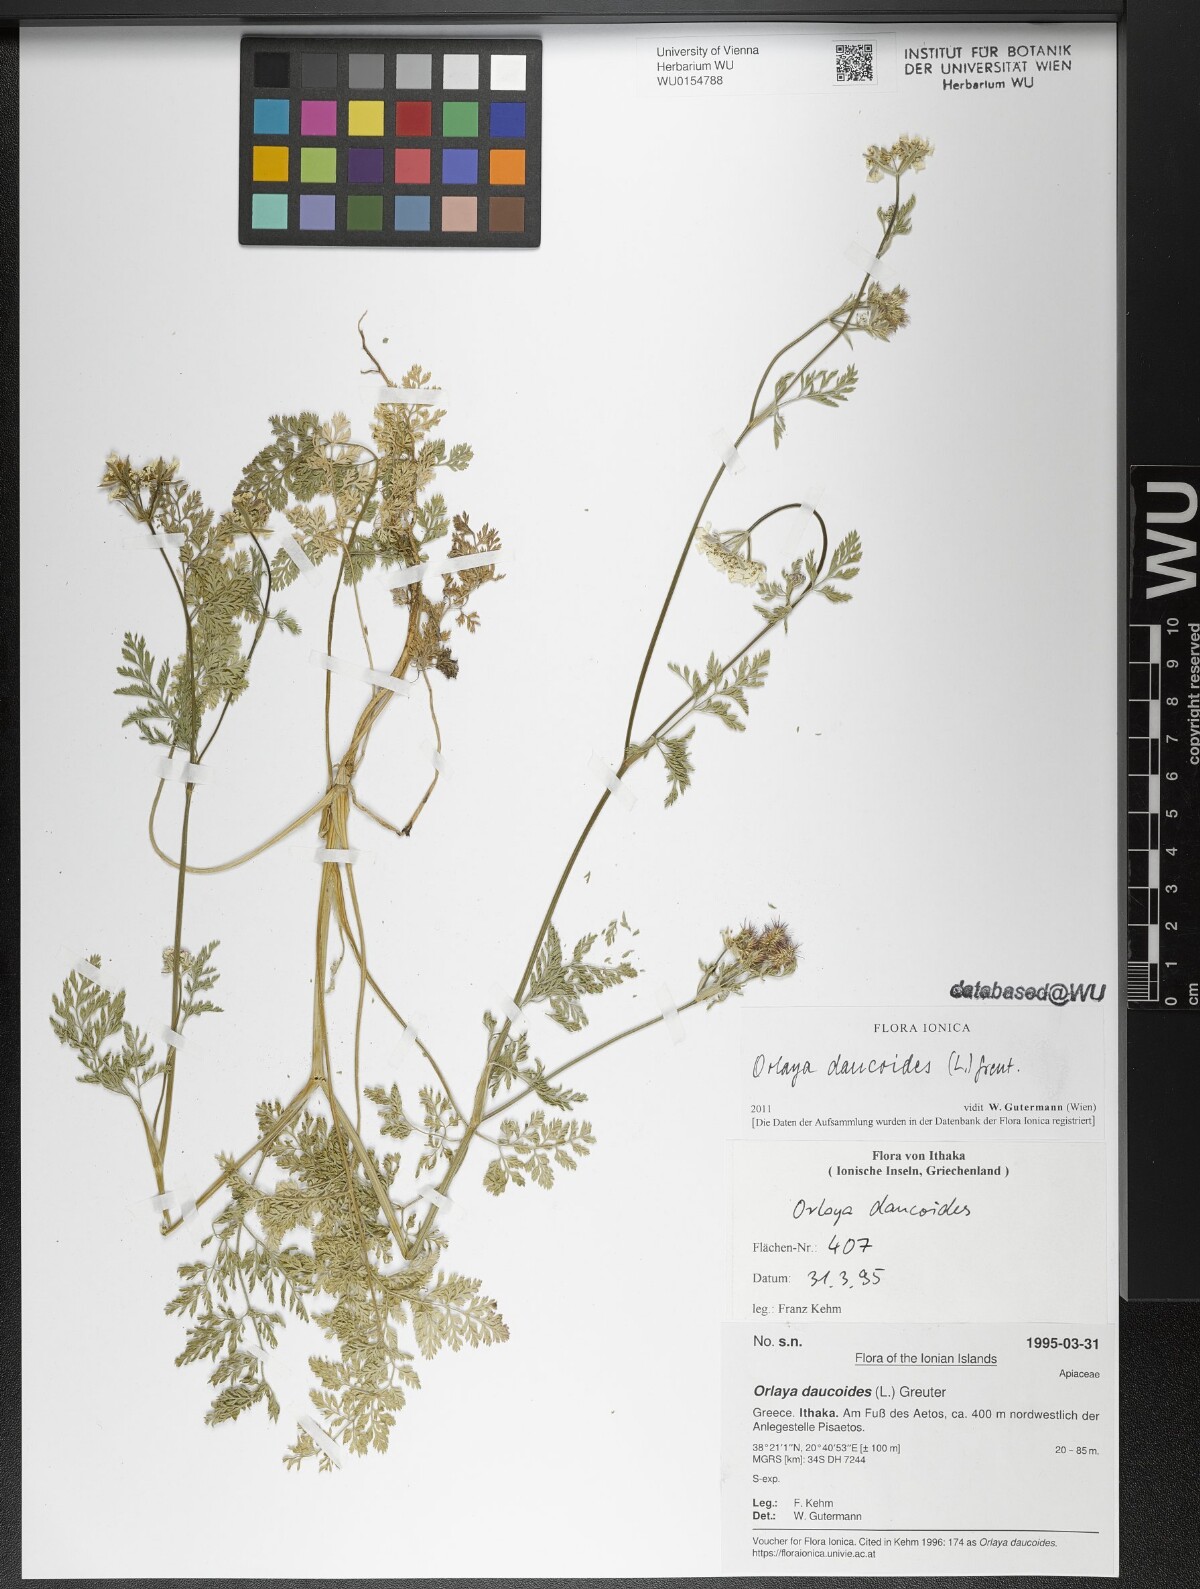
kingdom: Plantae
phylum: Tracheophyta
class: Magnoliopsida
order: Apiales
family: Apiaceae
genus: Orlaya
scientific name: Orlaya daucoides
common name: Flat-fruit orlaya
